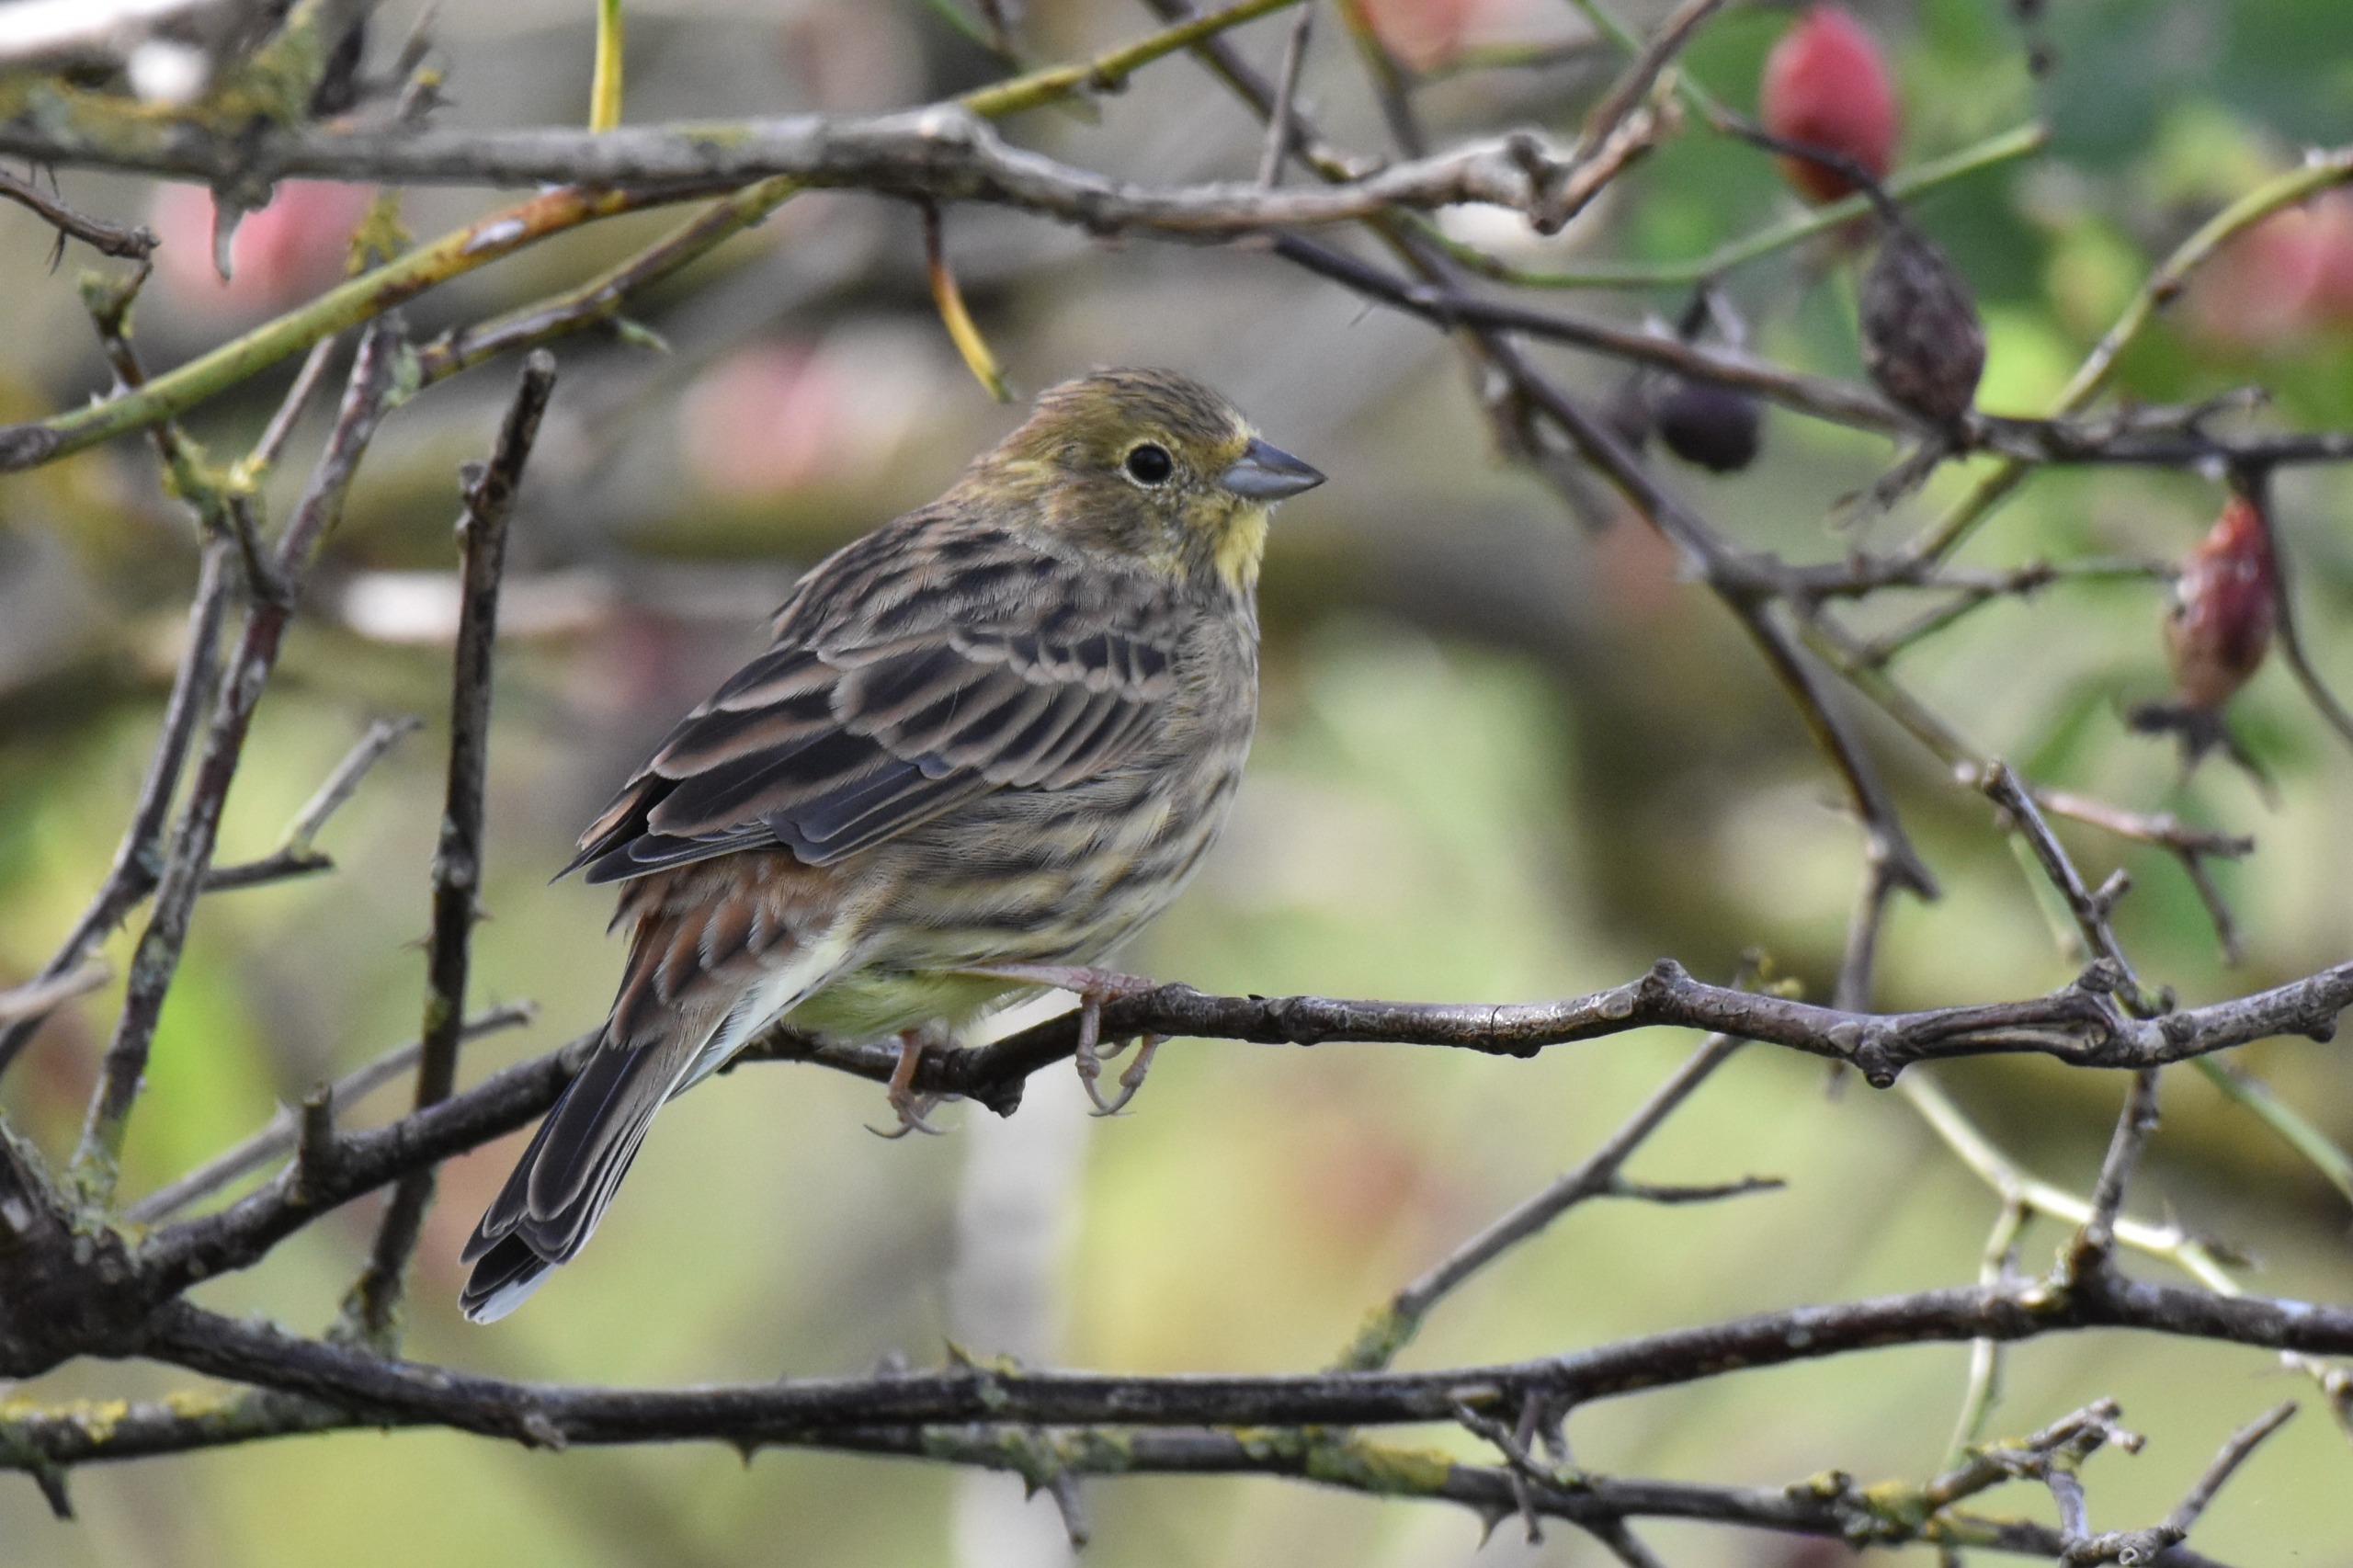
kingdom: Animalia
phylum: Chordata
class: Aves
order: Passeriformes
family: Emberizidae
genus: Emberiza
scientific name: Emberiza citrinella
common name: Gulspurv
